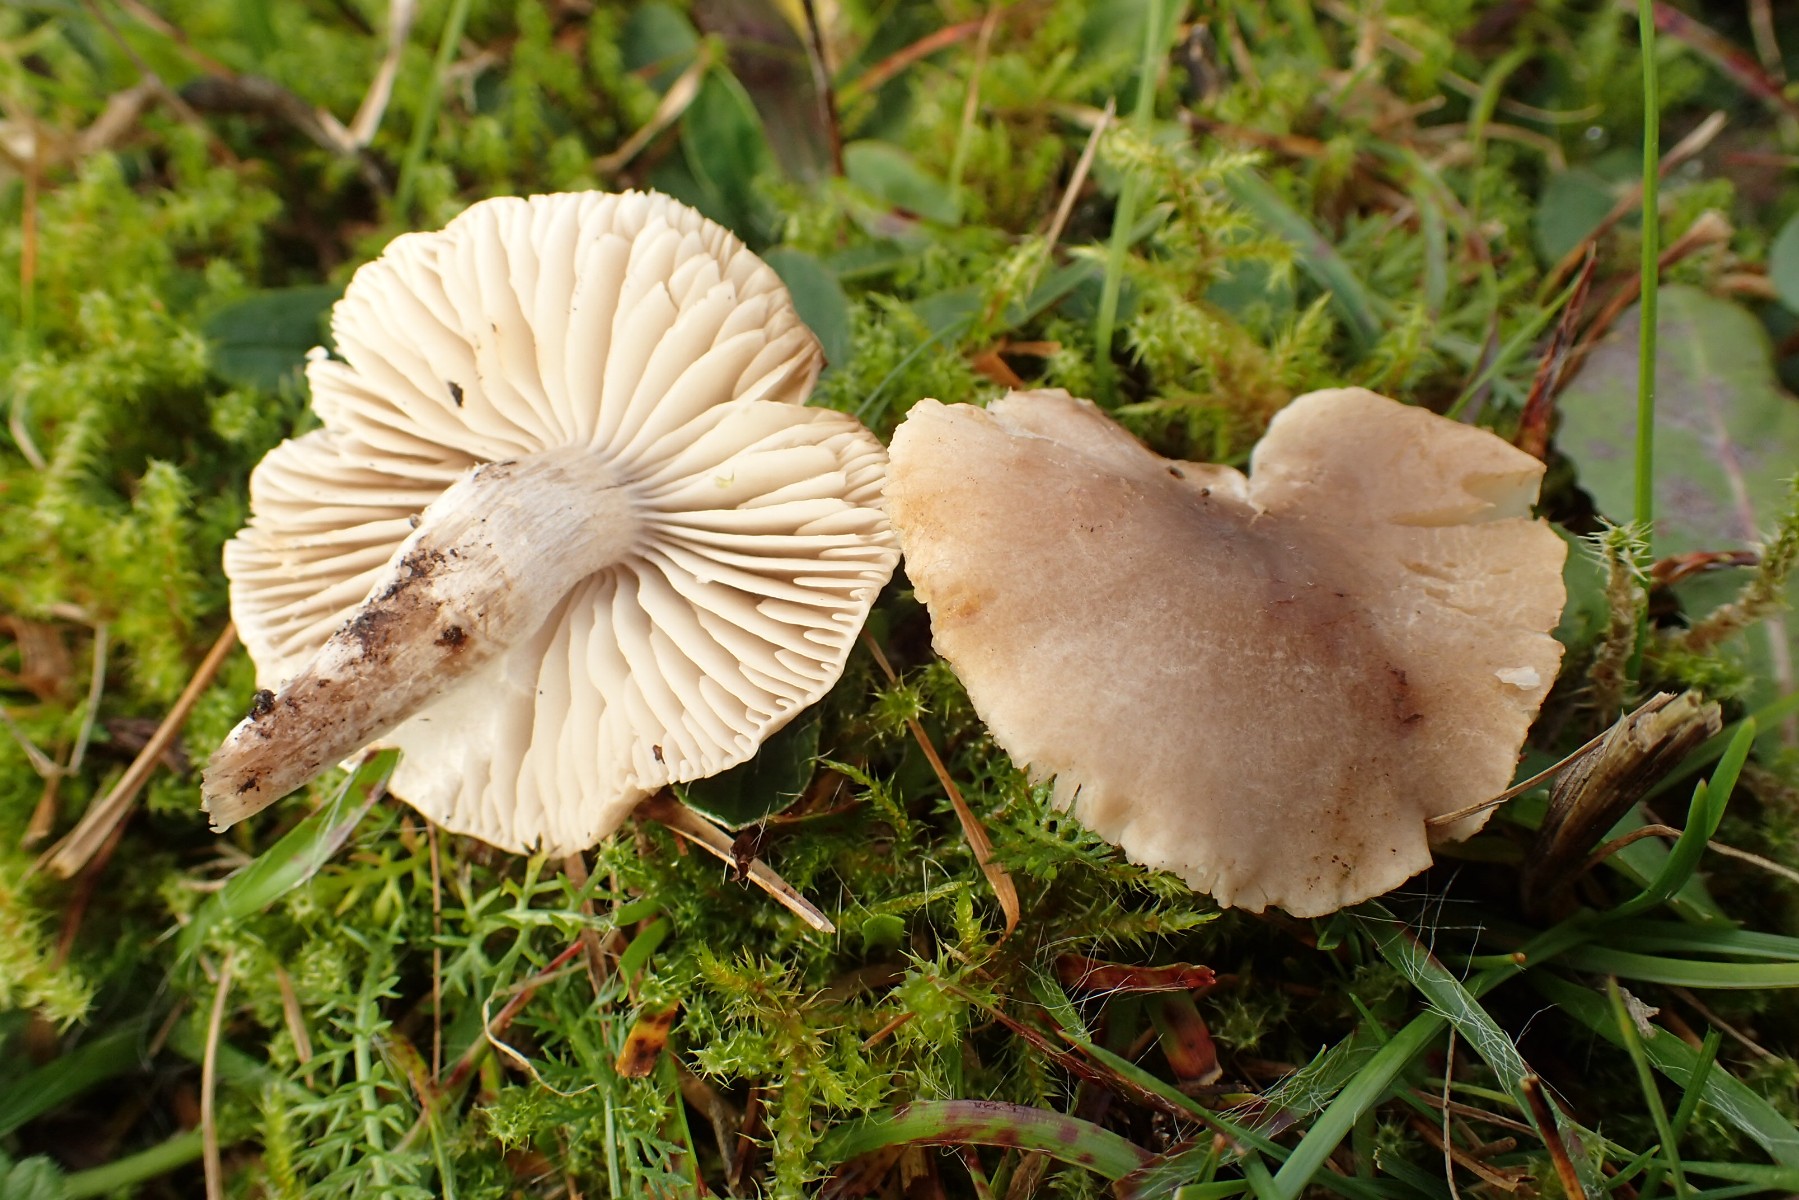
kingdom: Fungi
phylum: Basidiomycota
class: Agaricomycetes
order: Agaricales
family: Tricholomataceae
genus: Dermoloma
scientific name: Dermoloma cuneifolium
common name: eng-nonnehat
